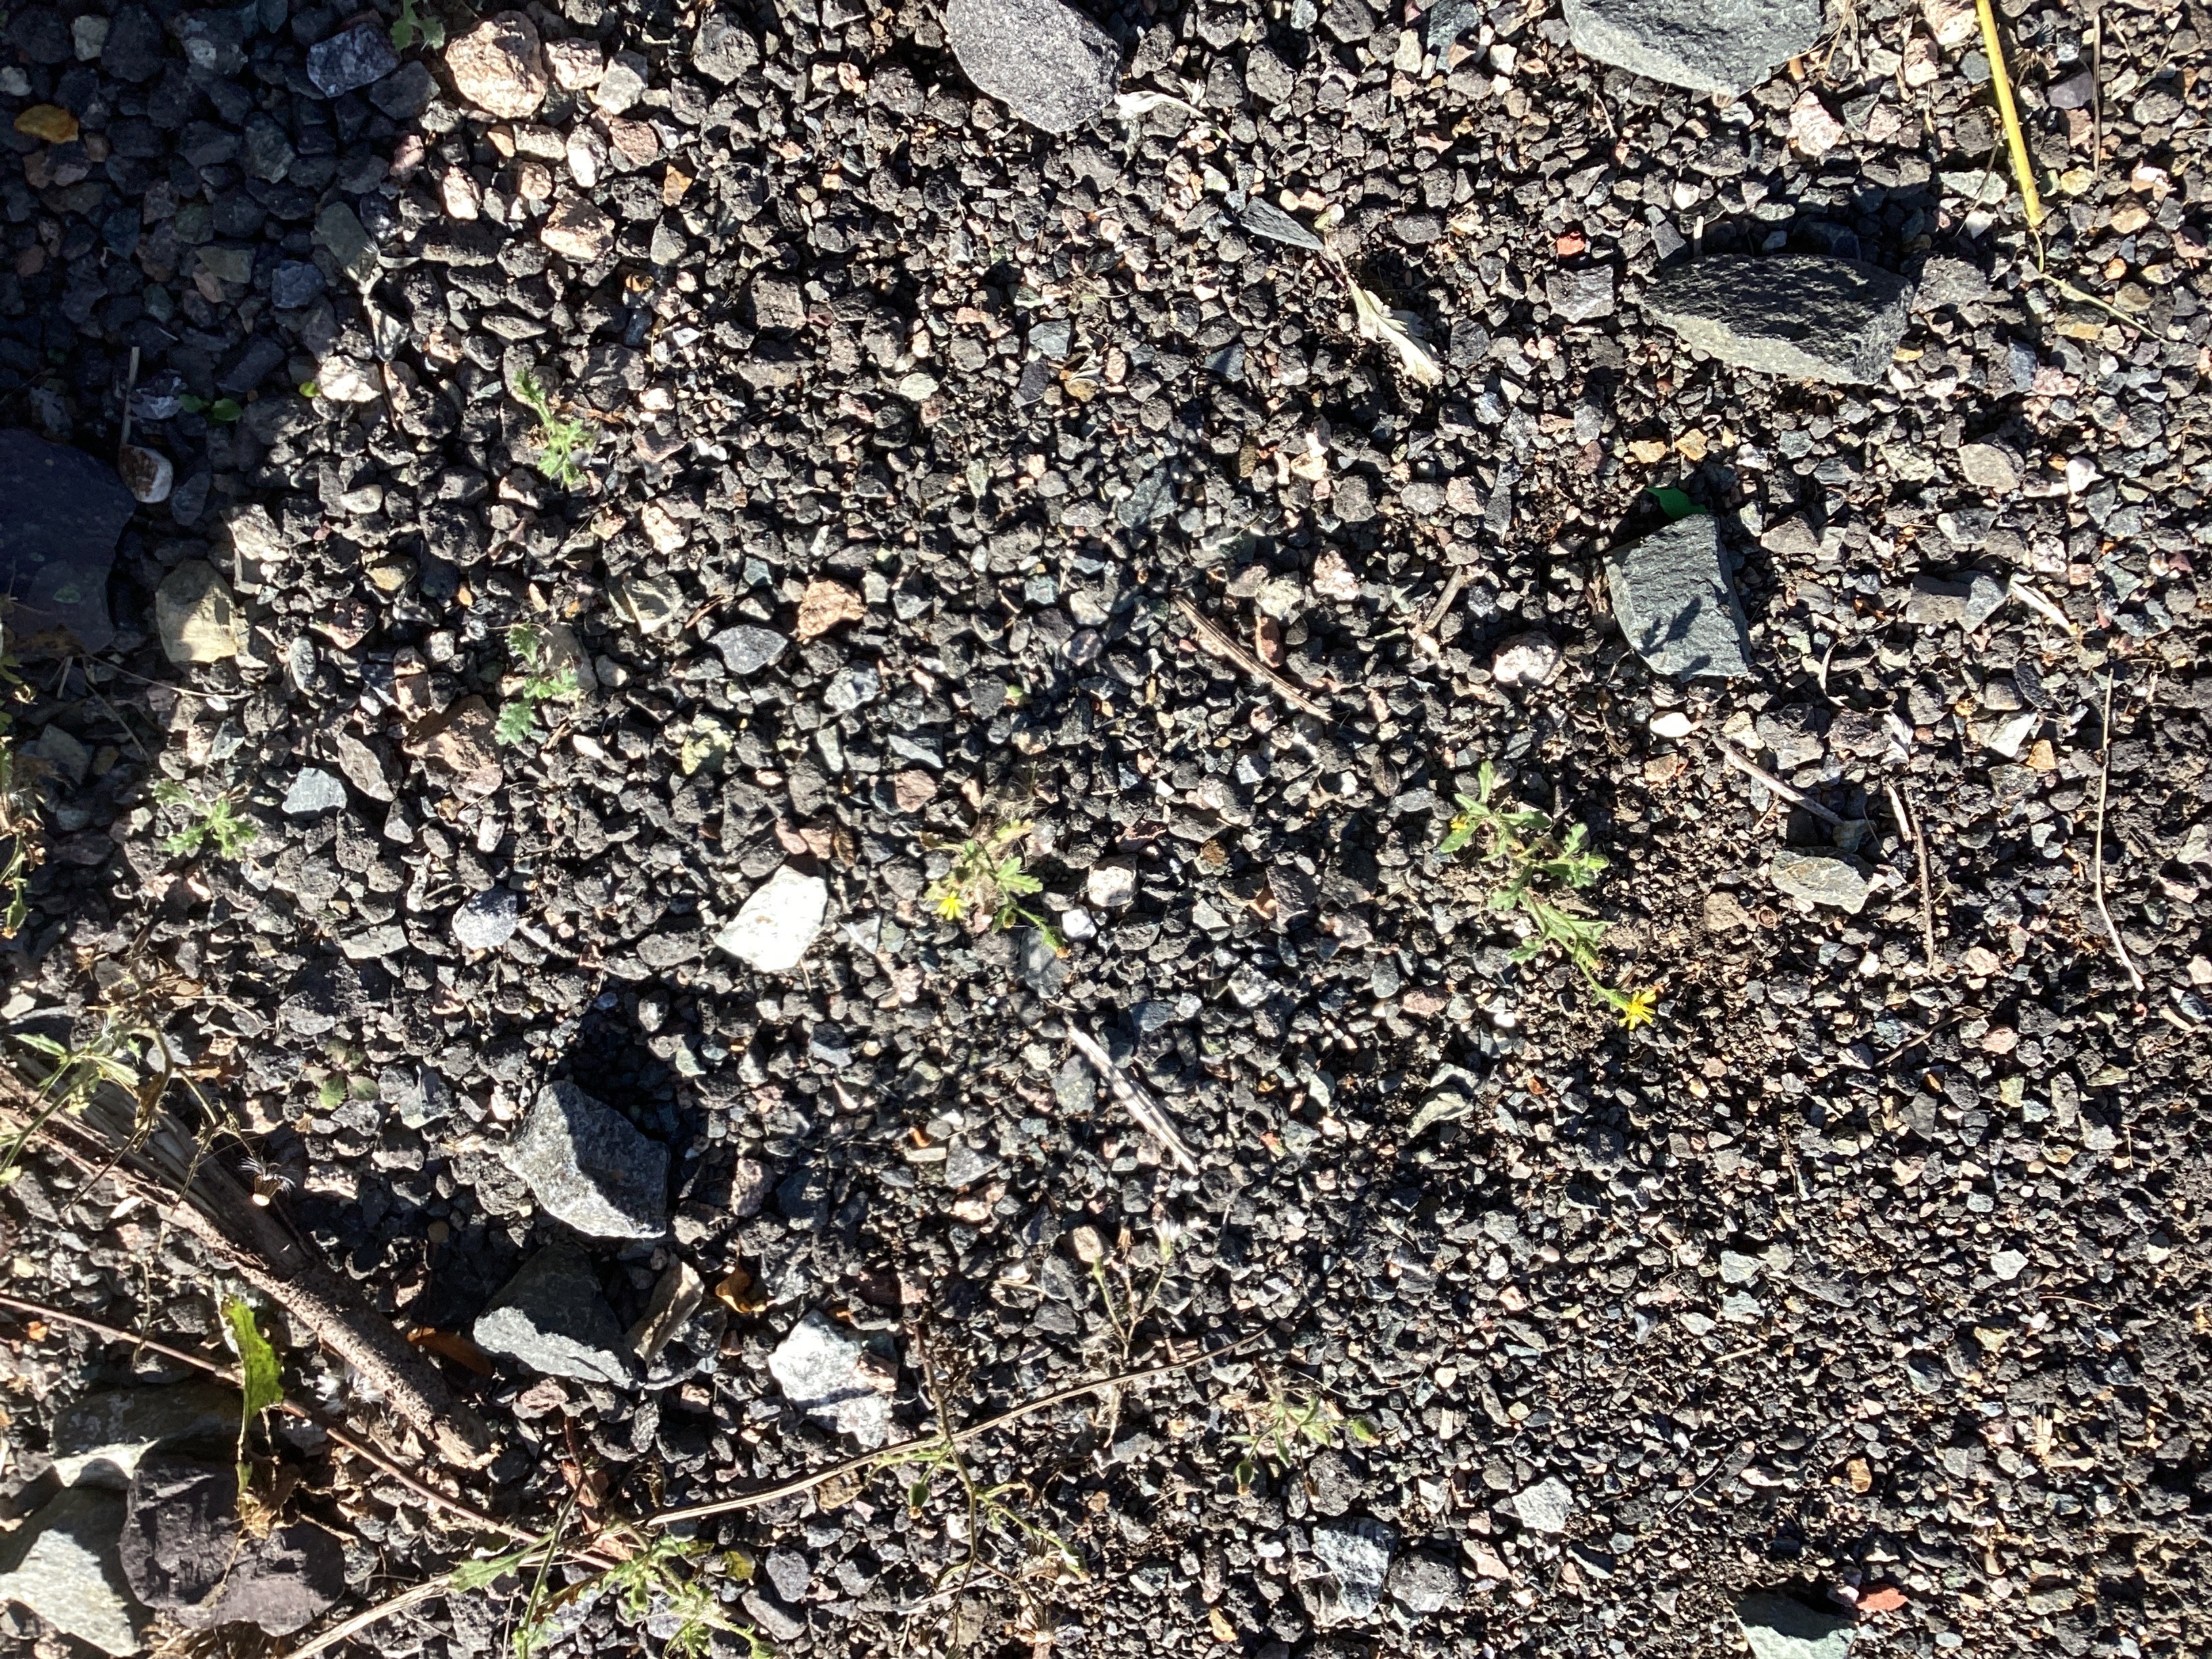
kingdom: Plantae
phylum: Tracheophyta
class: Magnoliopsida
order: Asterales
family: Asteraceae
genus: Senecio
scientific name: Senecio viscosus
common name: klistersvineblom
